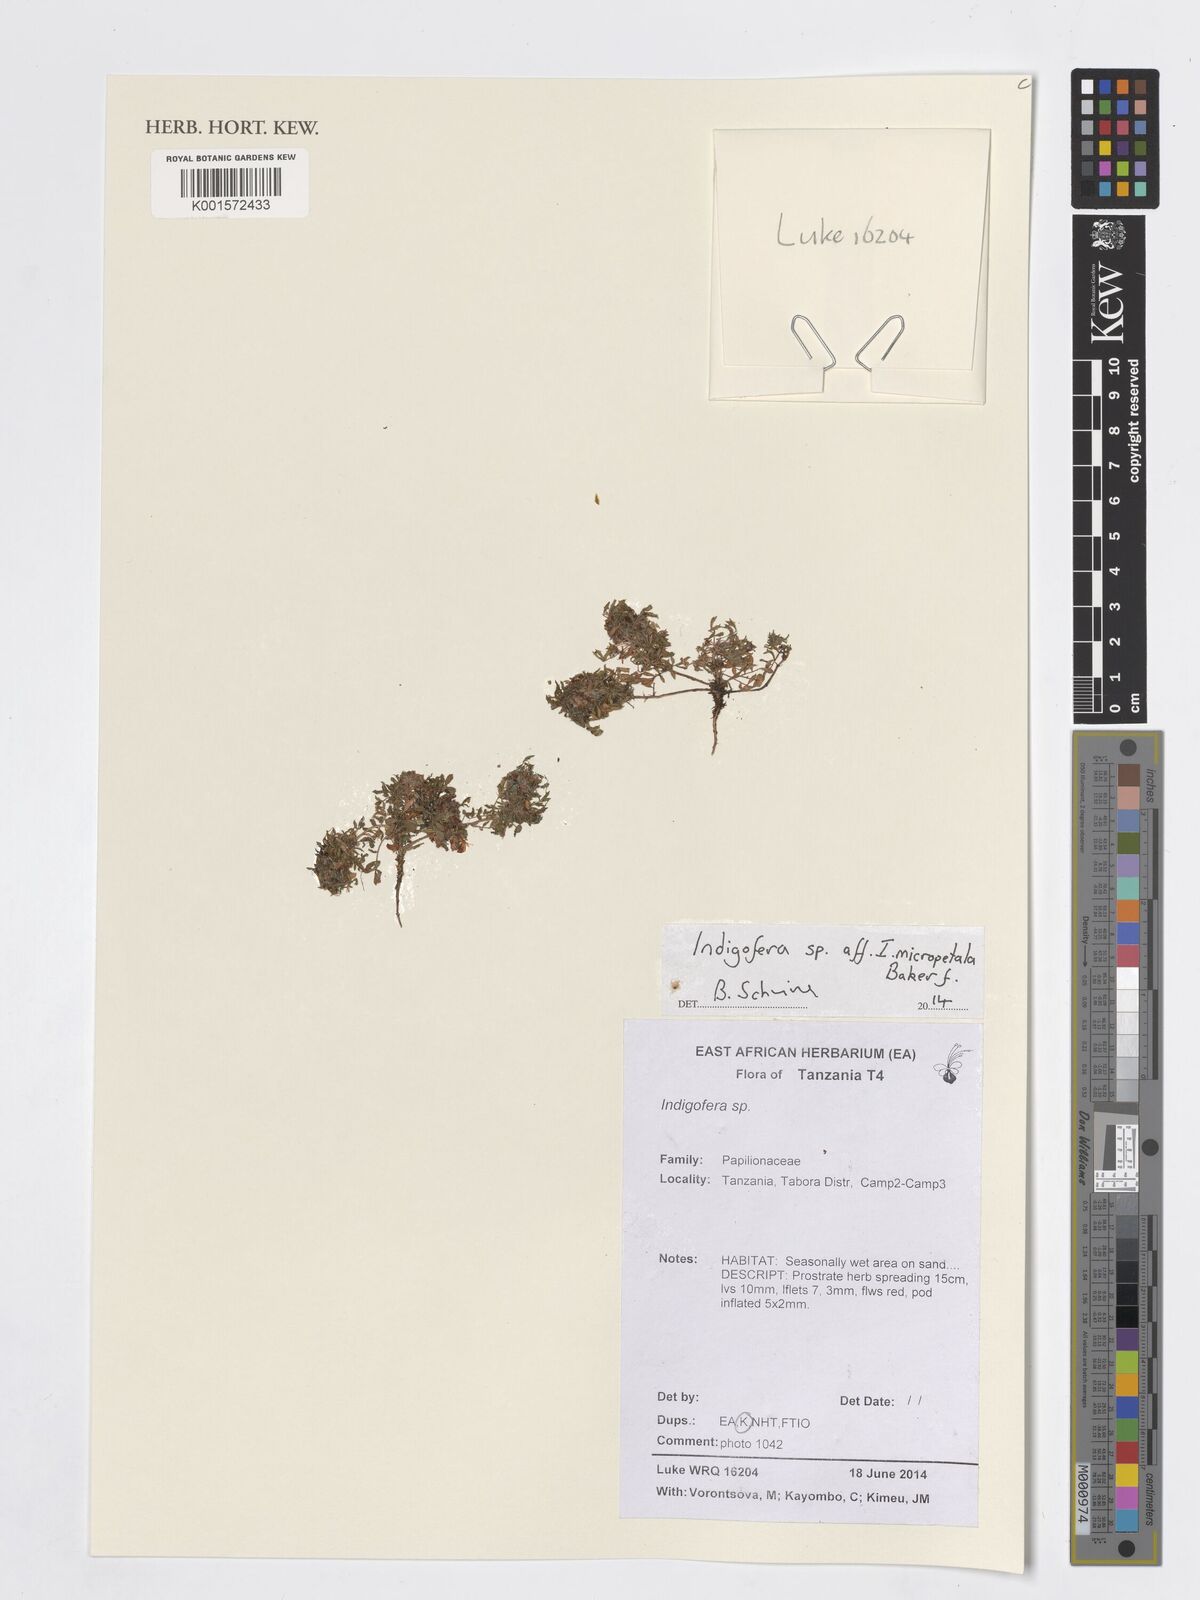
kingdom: Plantae
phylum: Tracheophyta
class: Magnoliopsida
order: Fabales
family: Fabaceae
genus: Indigofera
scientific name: Indigofera micropetala
